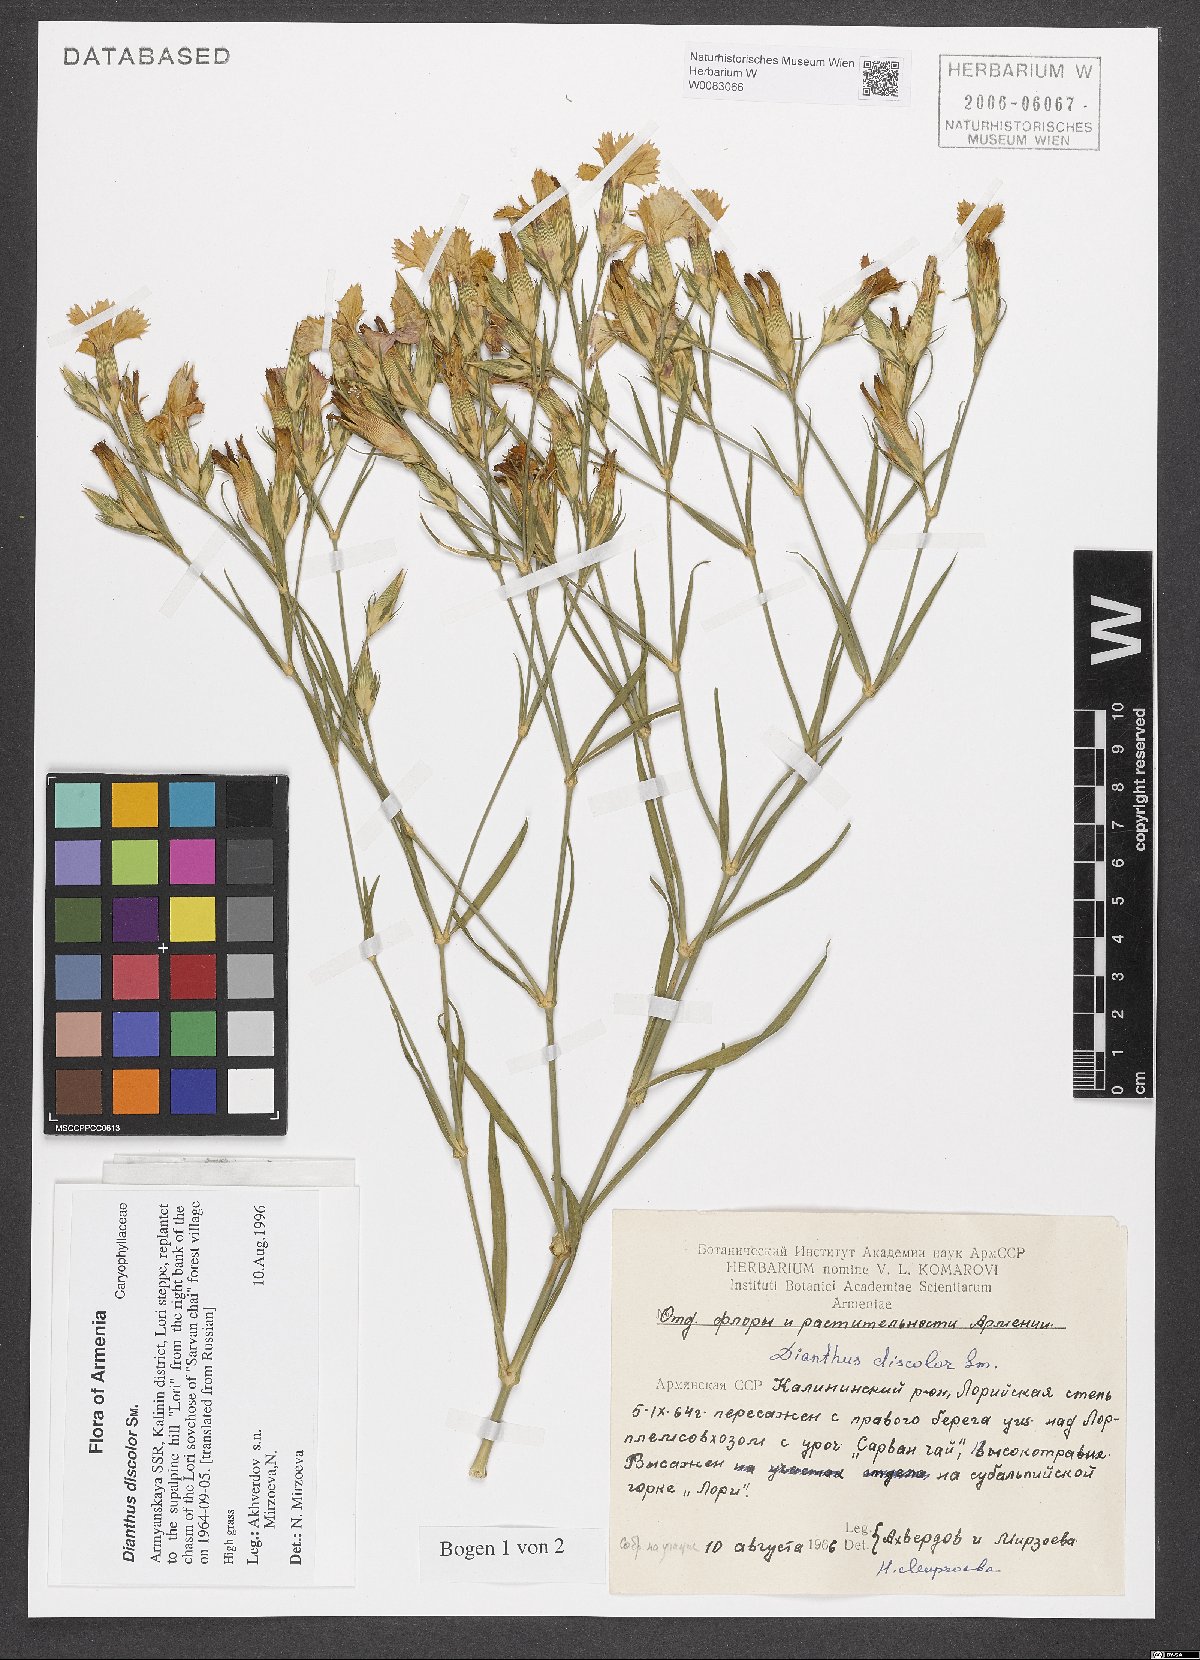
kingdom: Plantae
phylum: Tracheophyta
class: Magnoliopsida
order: Caryophyllales
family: Caryophyllaceae
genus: Dianthus
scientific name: Dianthus caucaseus
